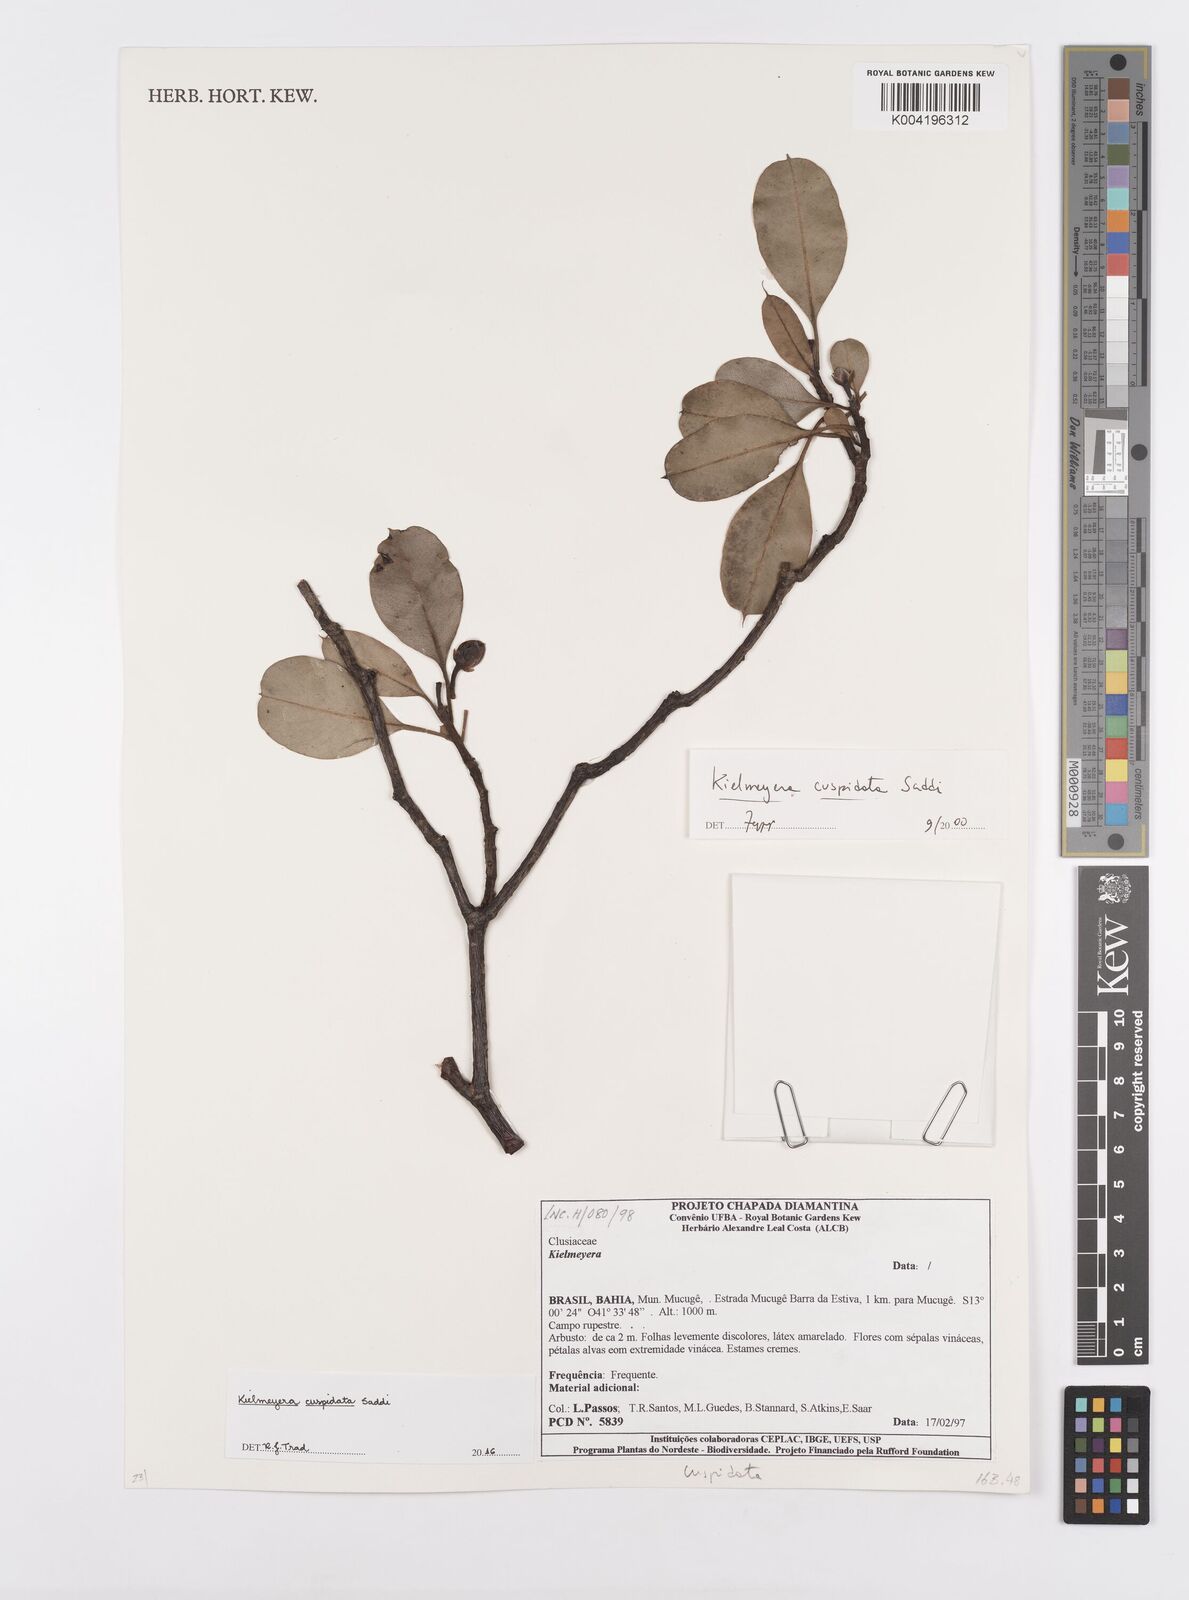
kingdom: Plantae
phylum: Tracheophyta
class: Magnoliopsida
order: Malpighiales
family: Calophyllaceae
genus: Kielmeyera
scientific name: Kielmeyera cuspidata
